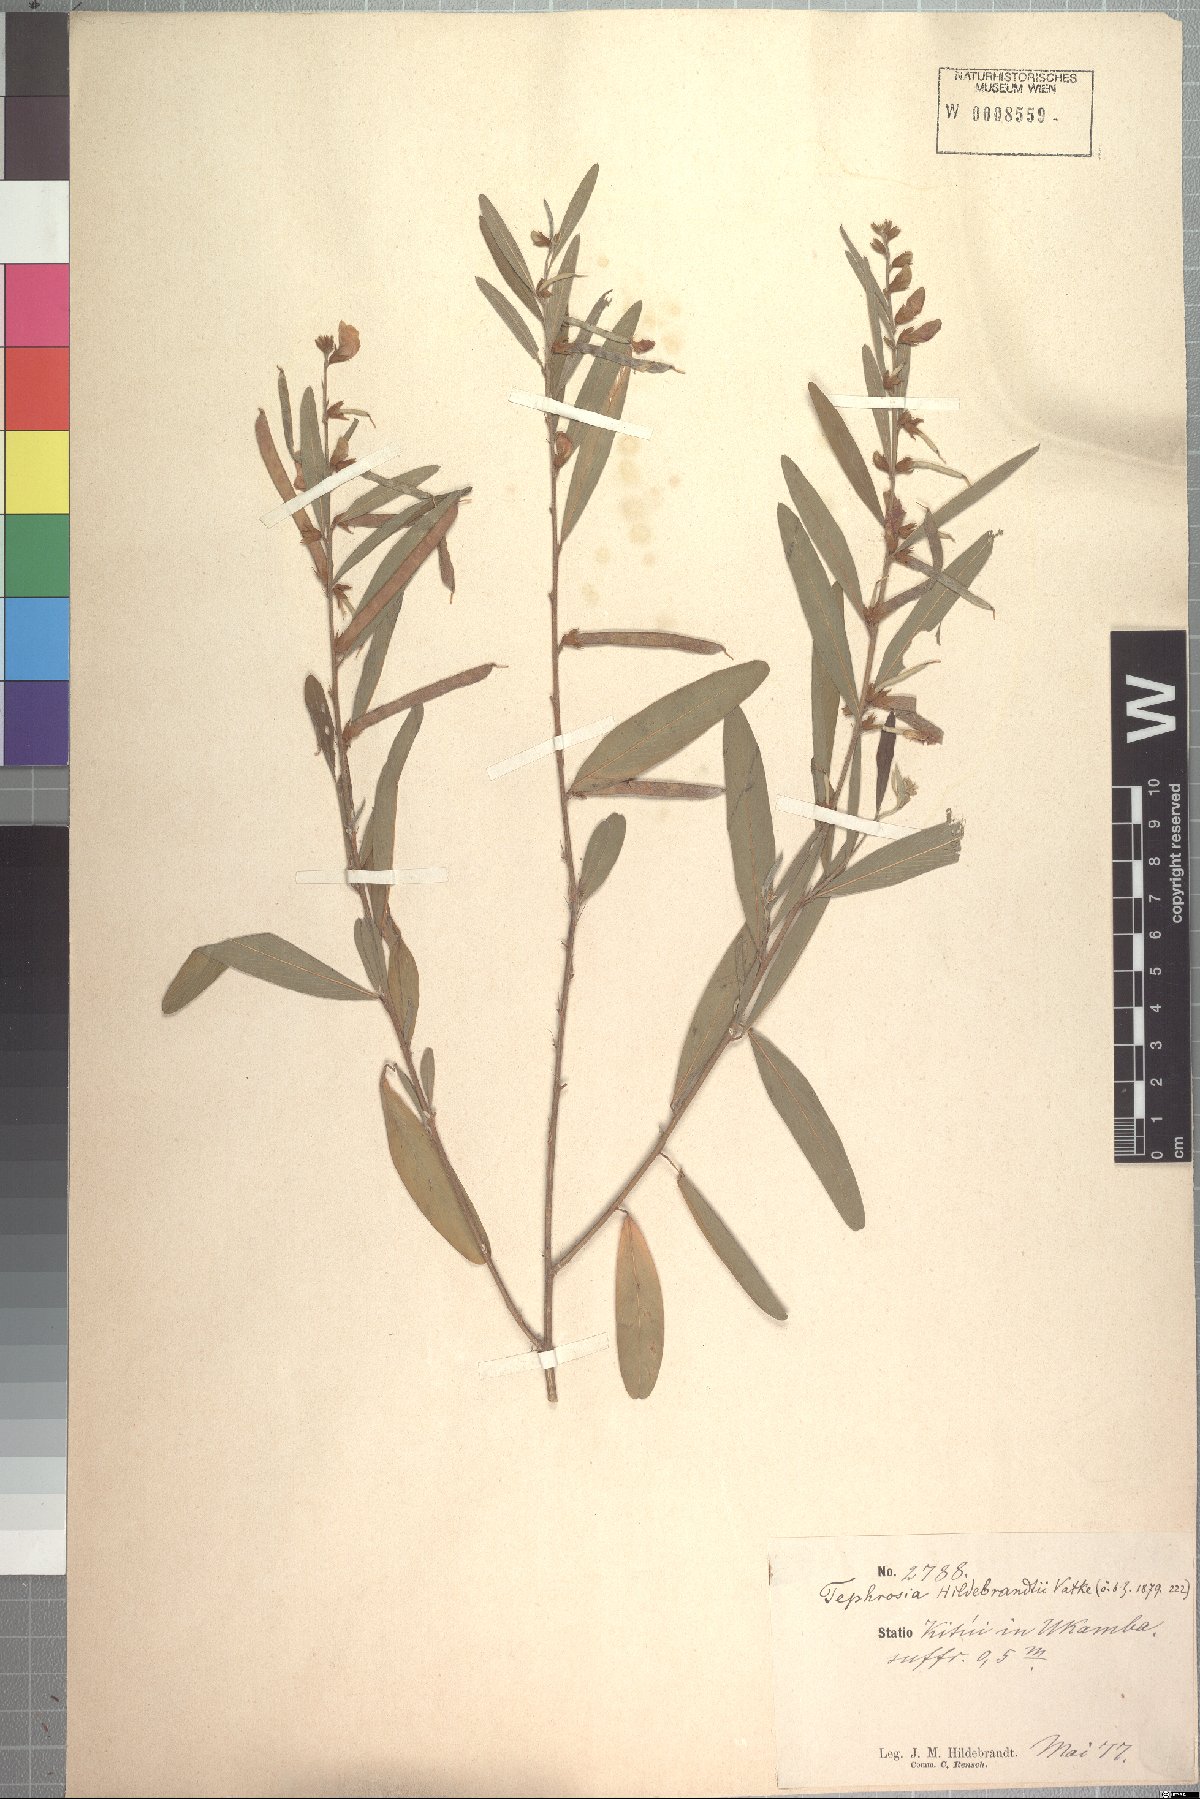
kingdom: Plantae
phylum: Tracheophyta
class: Magnoliopsida
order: Fabales
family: Fabaceae
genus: Tephrosia
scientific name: Tephrosia hildebrandtii
